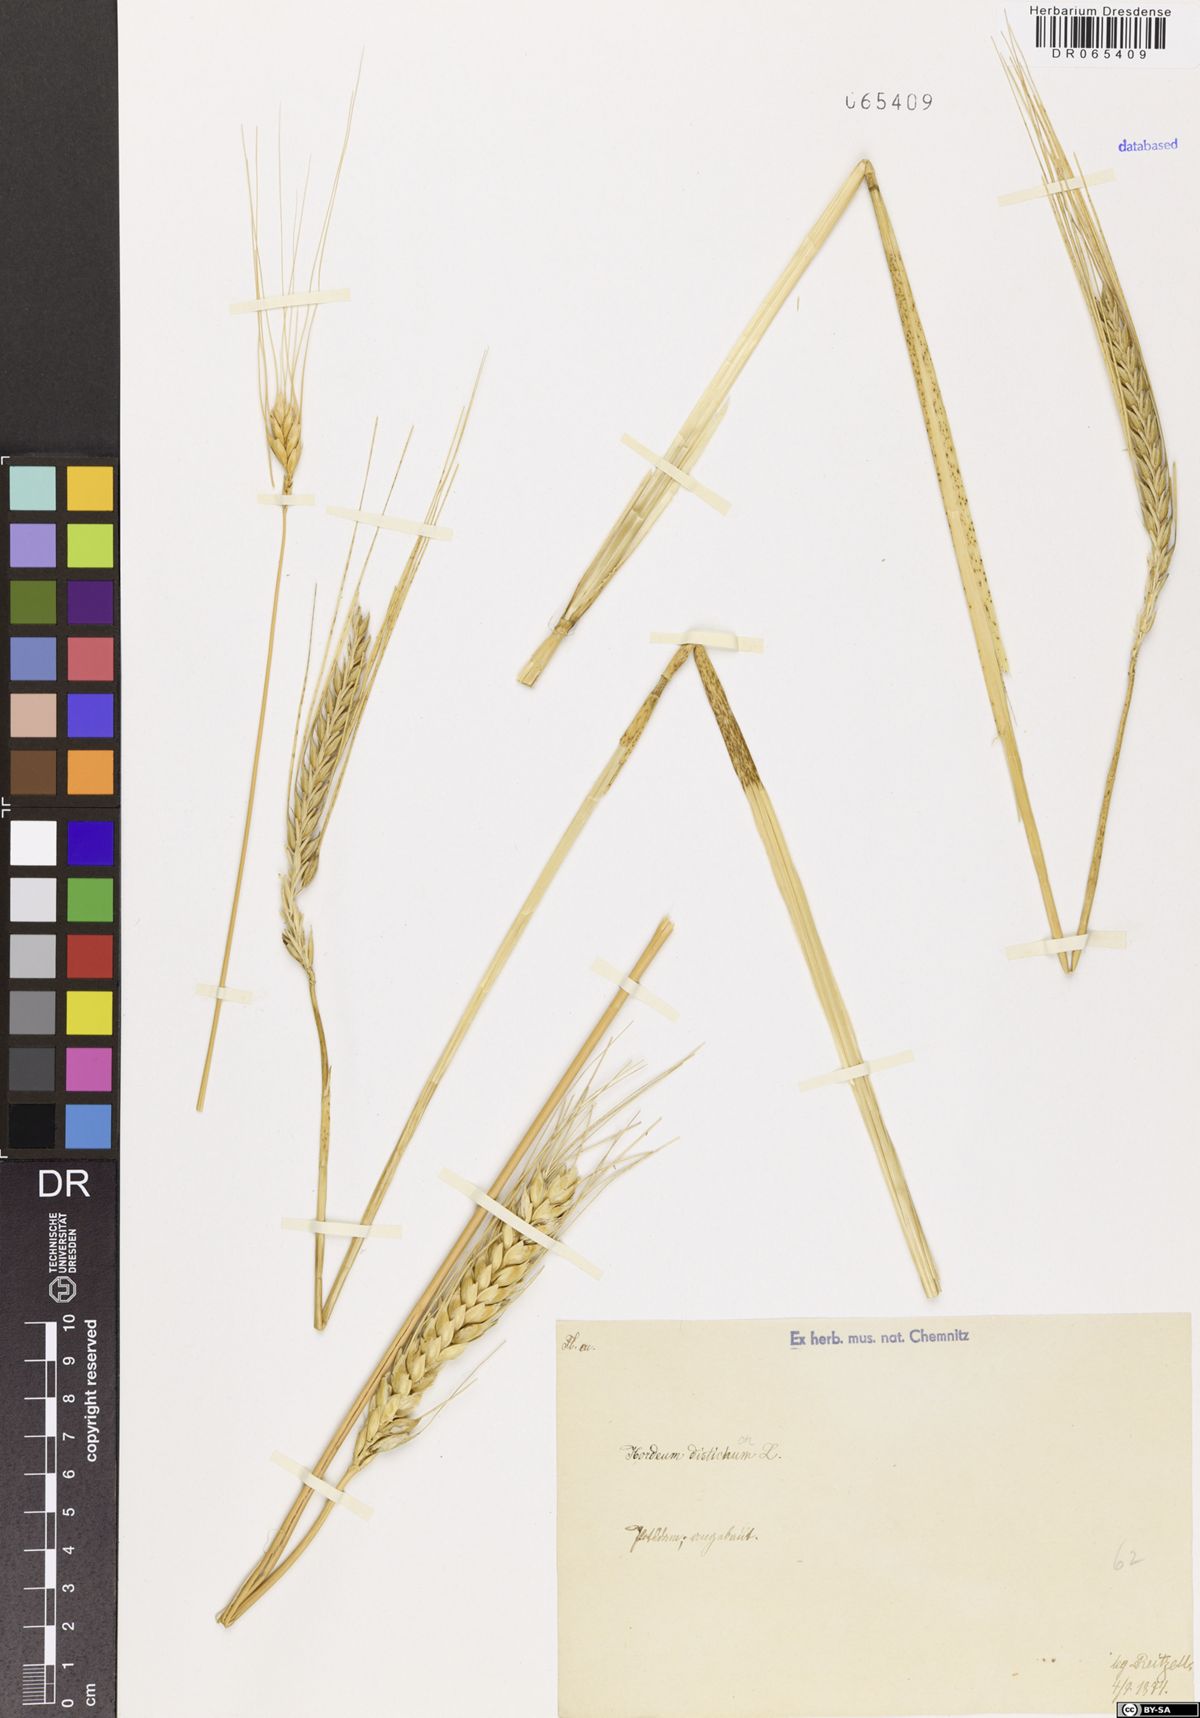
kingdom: Plantae
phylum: Tracheophyta
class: Liliopsida
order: Poales
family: Poaceae
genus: Hordeum
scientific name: Hordeum distichon
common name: Two-rowed barley
